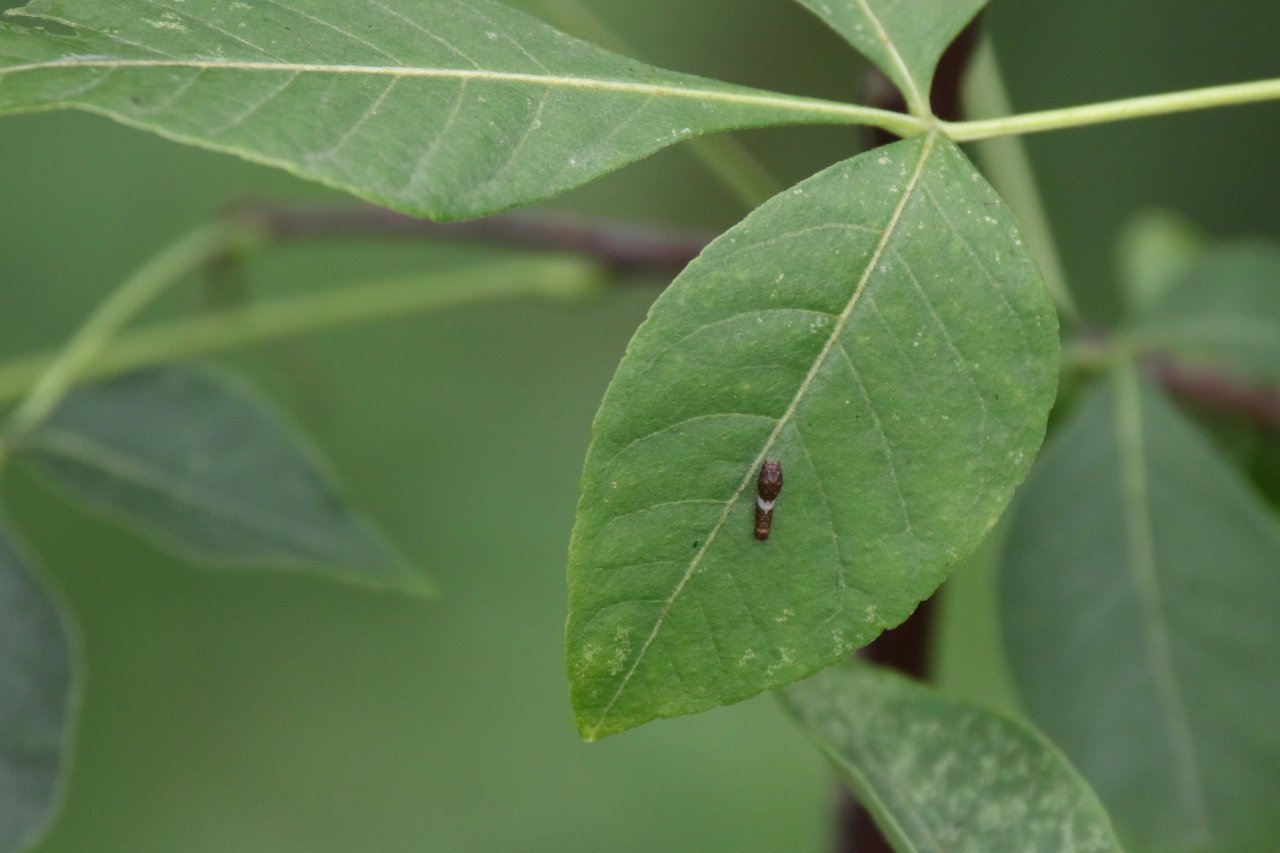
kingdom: Animalia
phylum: Arthropoda
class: Insecta
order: Lepidoptera
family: Papilionidae
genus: Papilio
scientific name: Papilio cresphontes
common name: Eastern Giant Swallowtail
